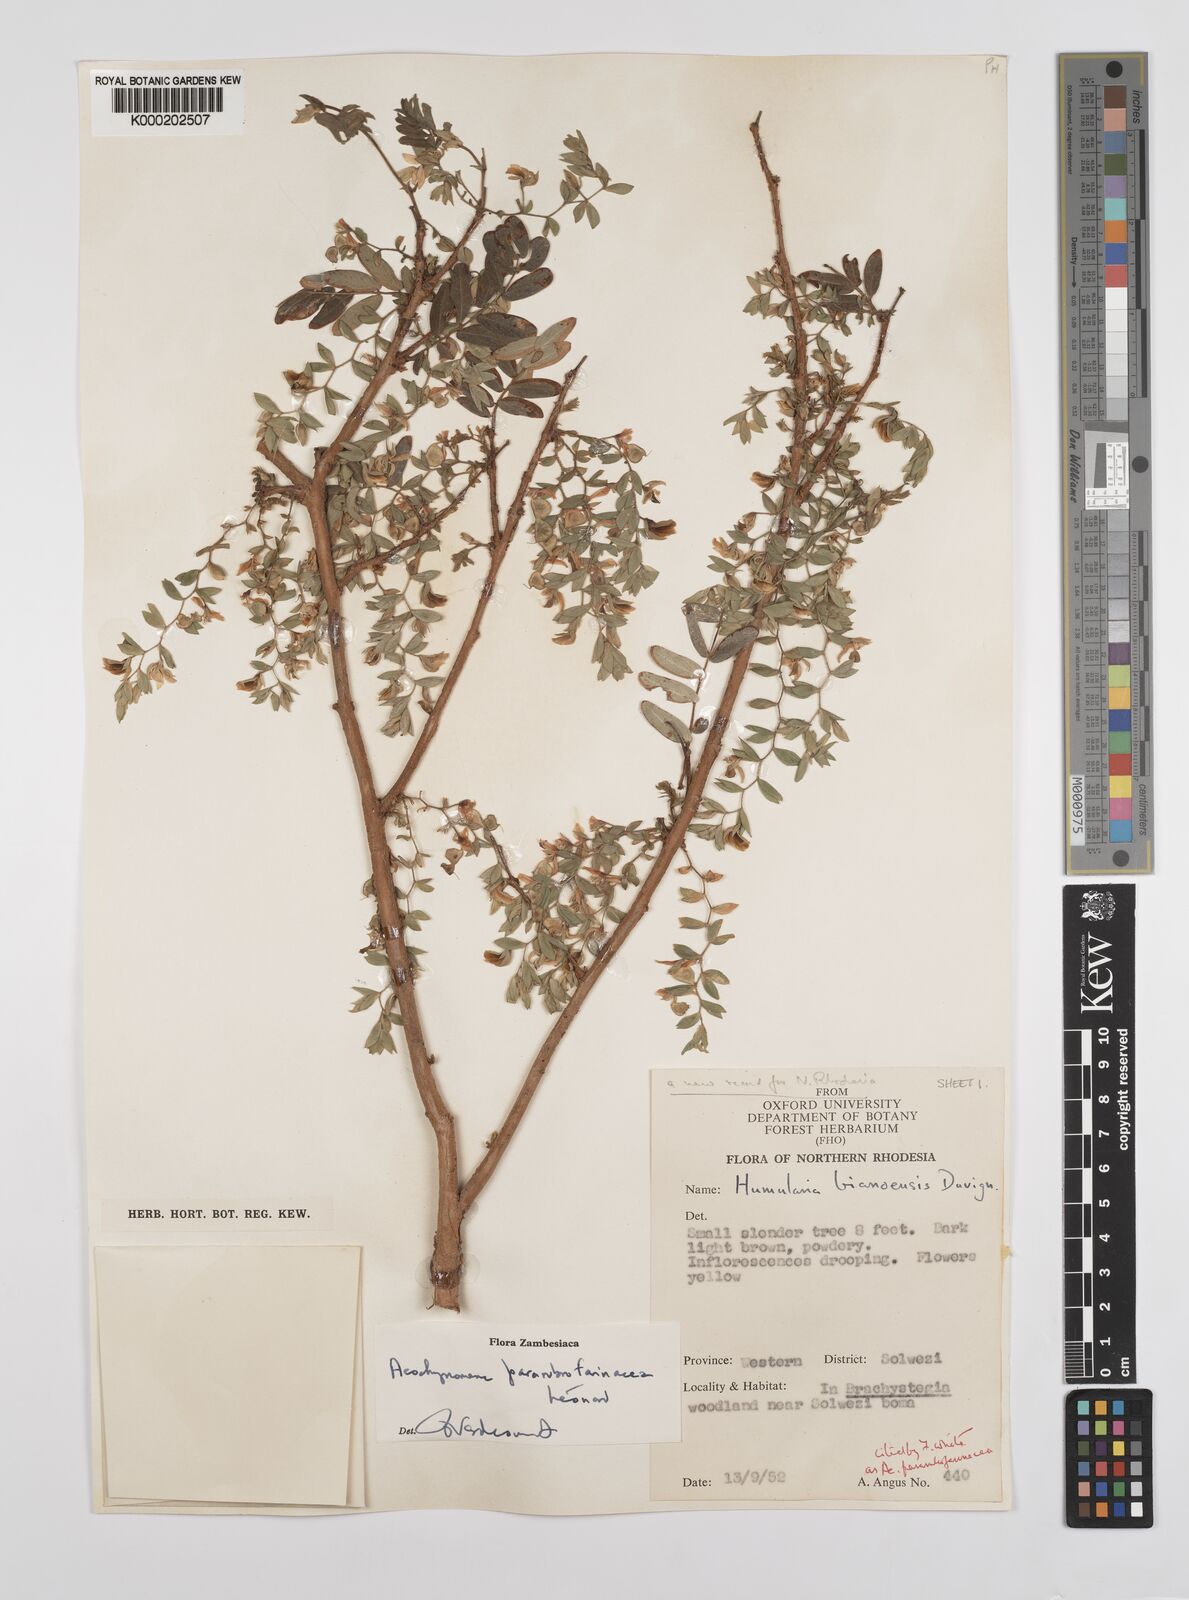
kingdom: Plantae
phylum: Tracheophyta
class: Magnoliopsida
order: Fabales
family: Fabaceae
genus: Aeschynomene
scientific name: Aeschynomene pararubrofarinacea
